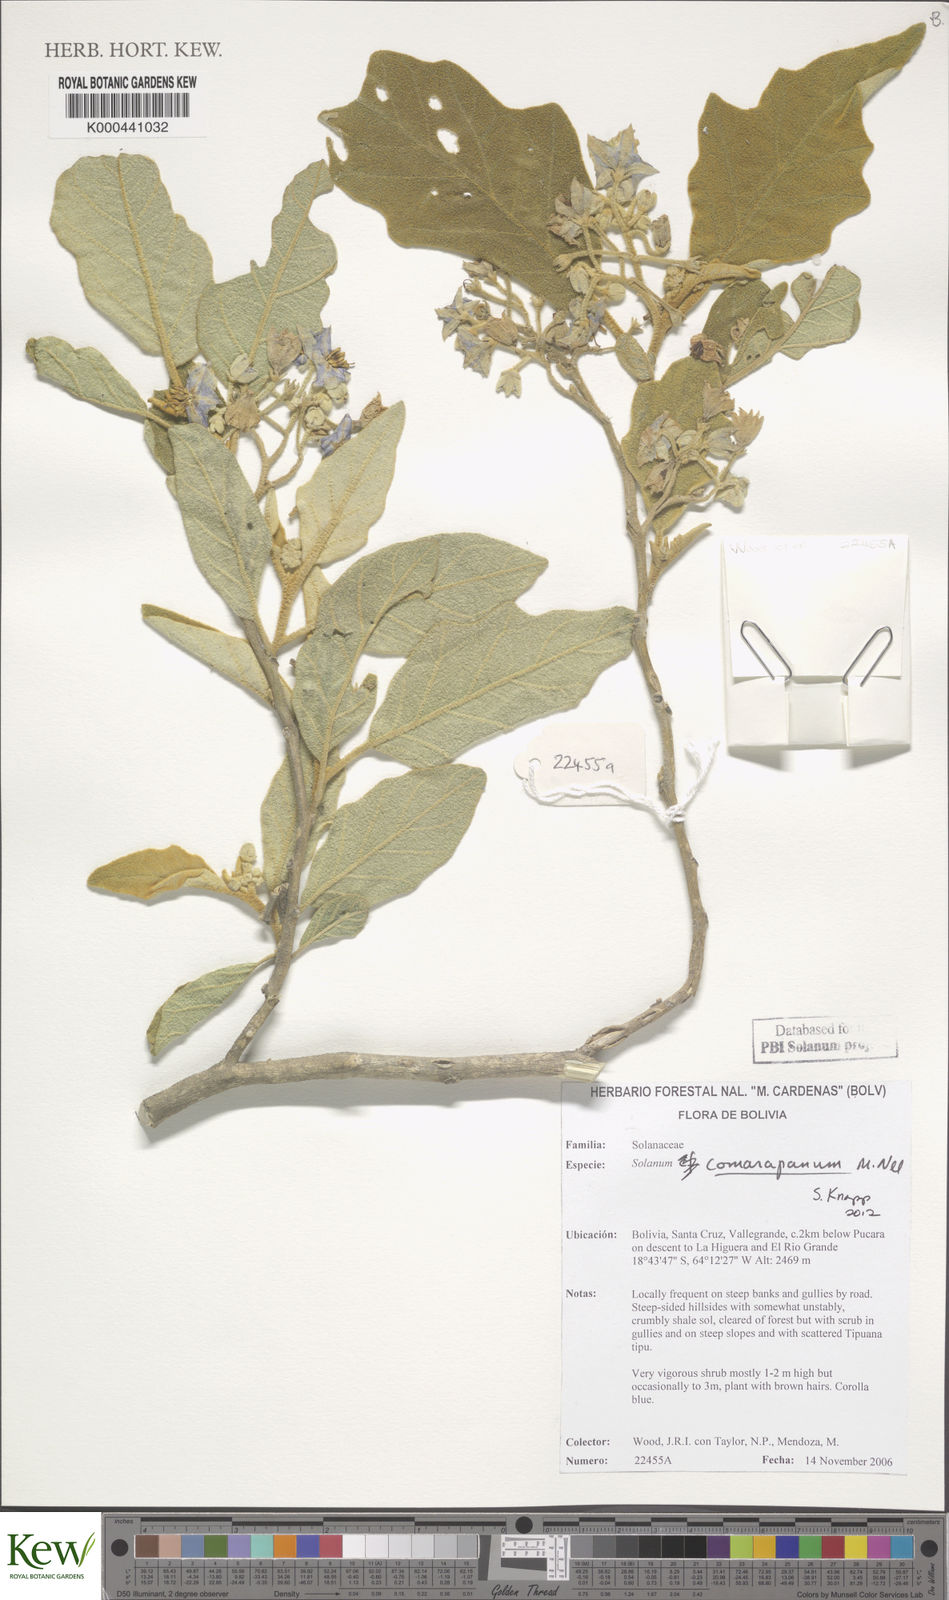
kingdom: Plantae
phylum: Tracheophyta
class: Magnoliopsida
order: Solanales
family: Solanaceae
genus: Solanum
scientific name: Solanum comarapanum
